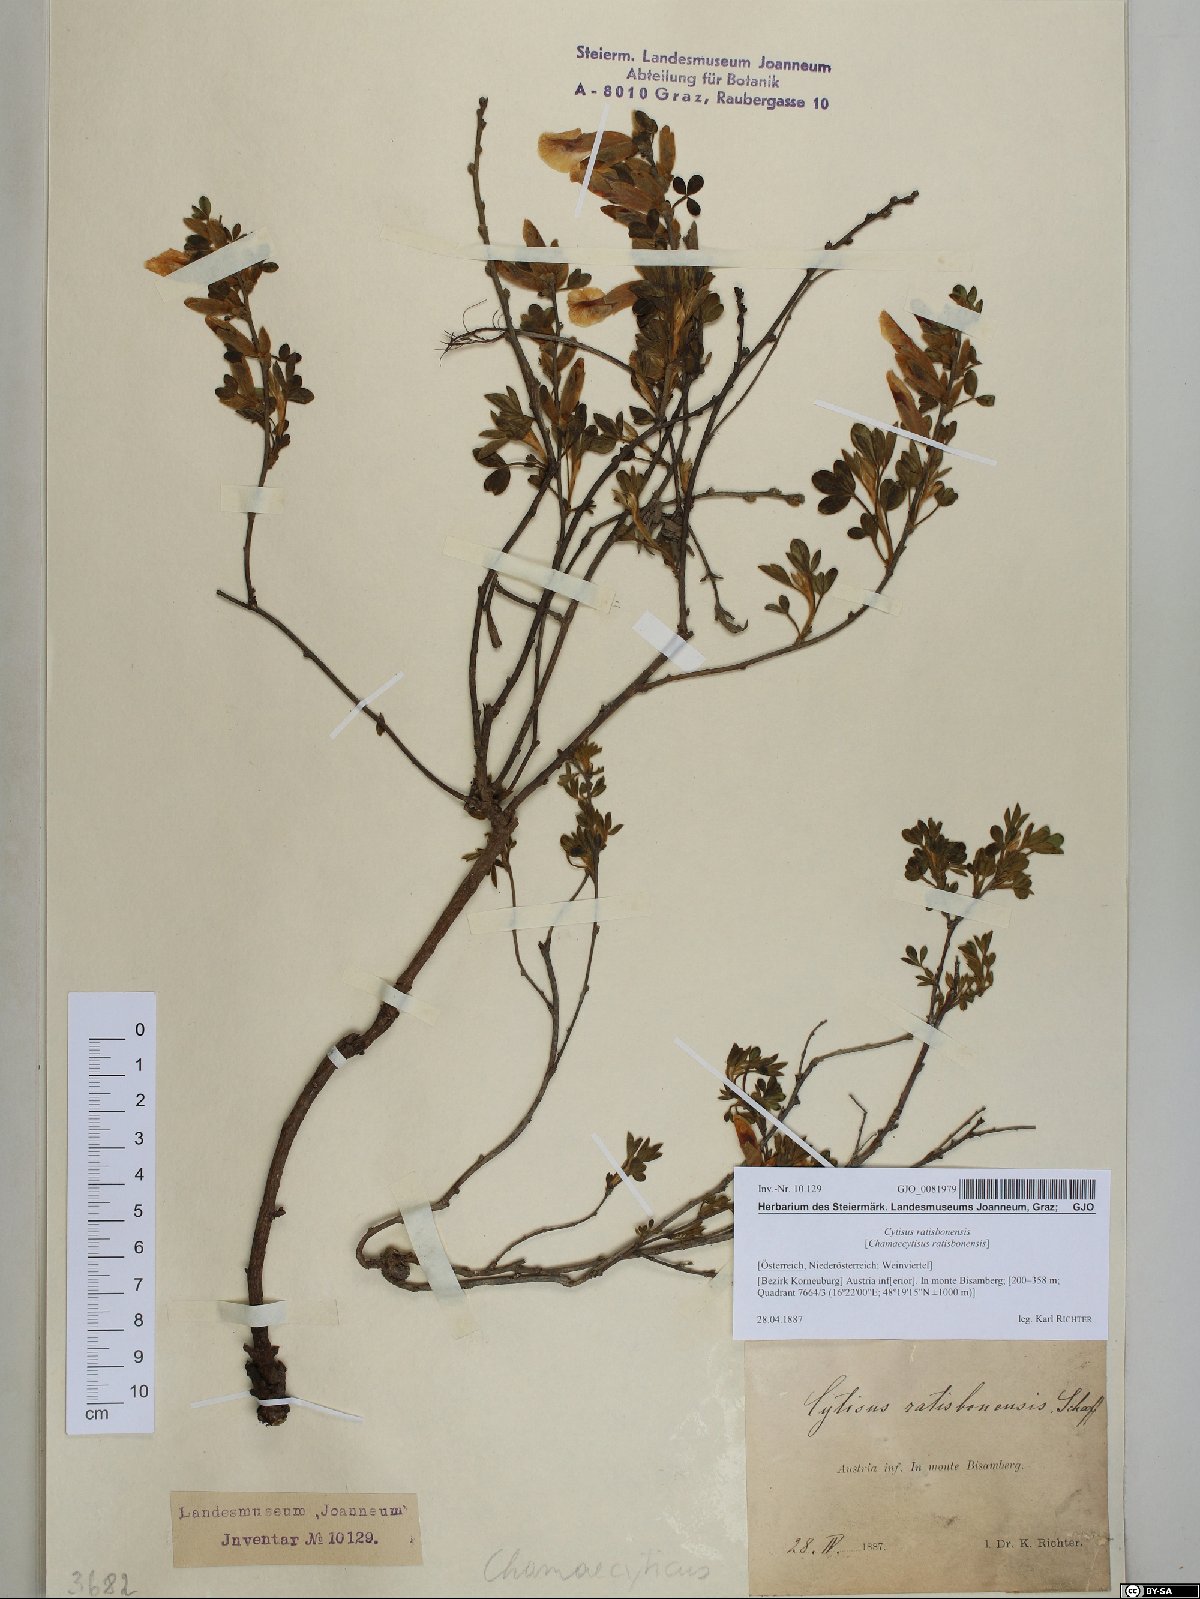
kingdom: Plantae
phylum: Tracheophyta
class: Magnoliopsida
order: Fabales
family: Fabaceae
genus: Chamaecytisus
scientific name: Chamaecytisus ratisbonensis
